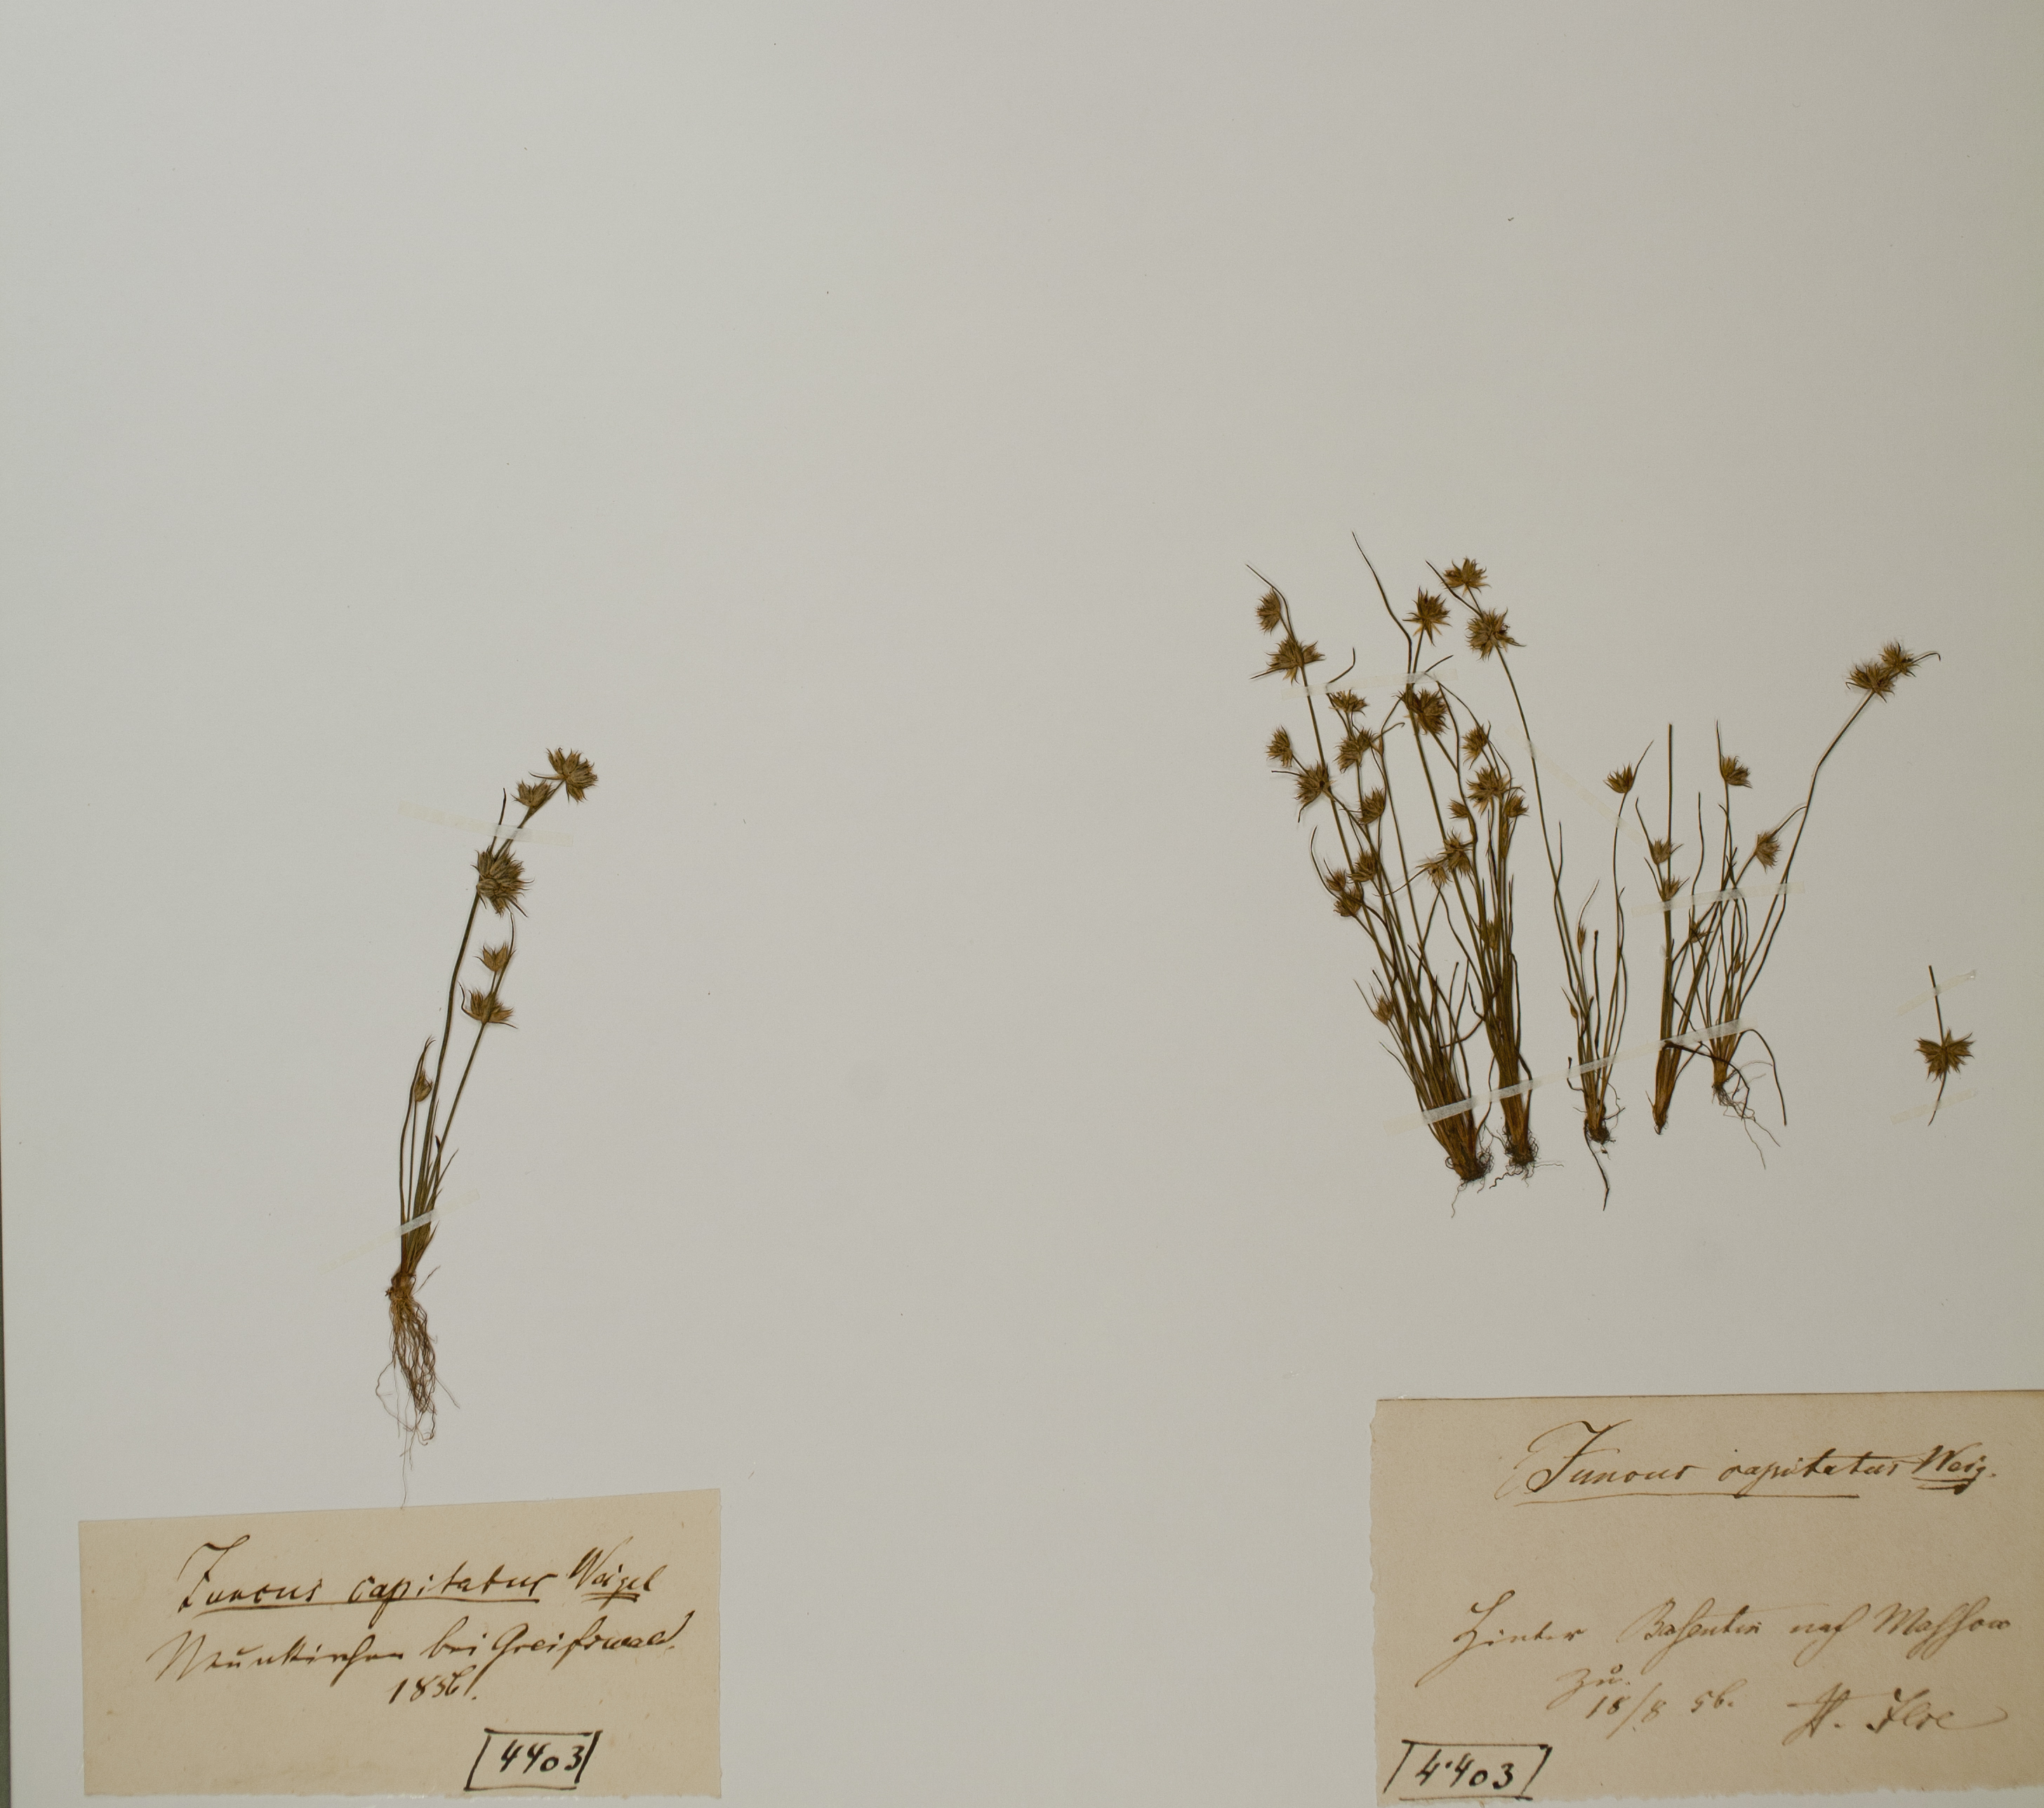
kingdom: Plantae
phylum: Tracheophyta
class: Liliopsida
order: Poales
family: Juncaceae
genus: Juncus
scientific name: Juncus capitatus
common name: Dwarf rush
